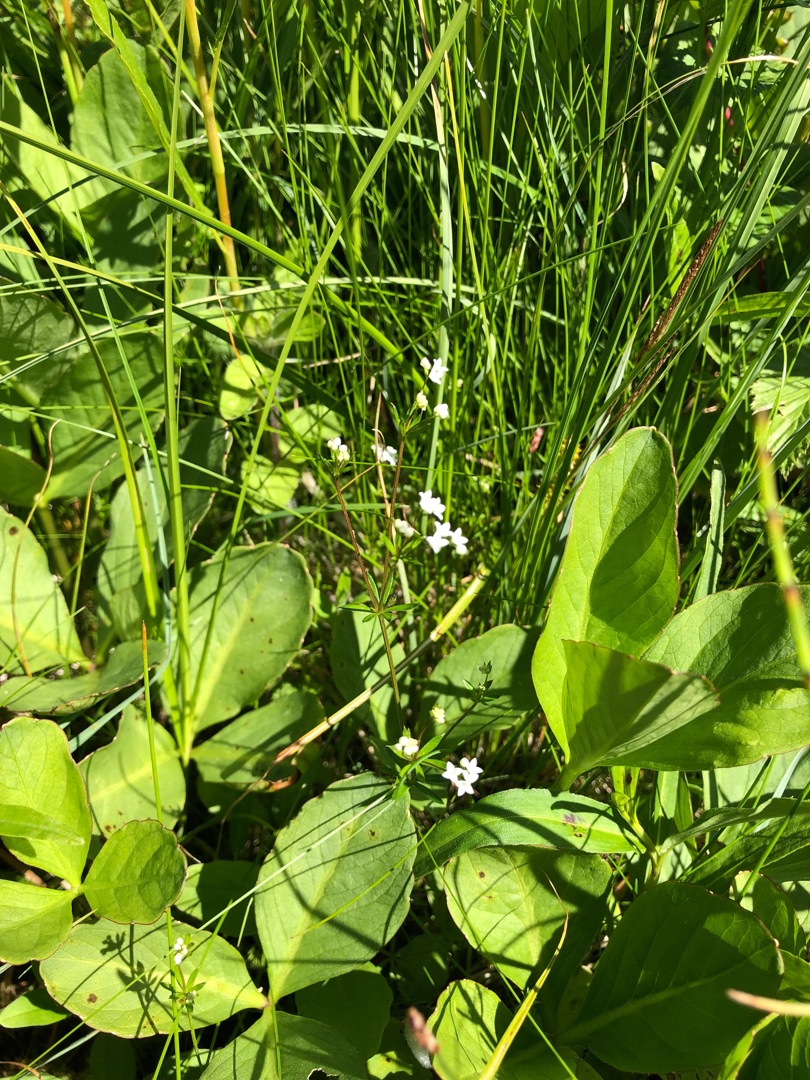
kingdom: Plantae
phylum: Tracheophyta
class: Magnoliopsida
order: Gentianales
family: Rubiaceae
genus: Galium
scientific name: Galium uliginosum
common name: Sump-snerre
